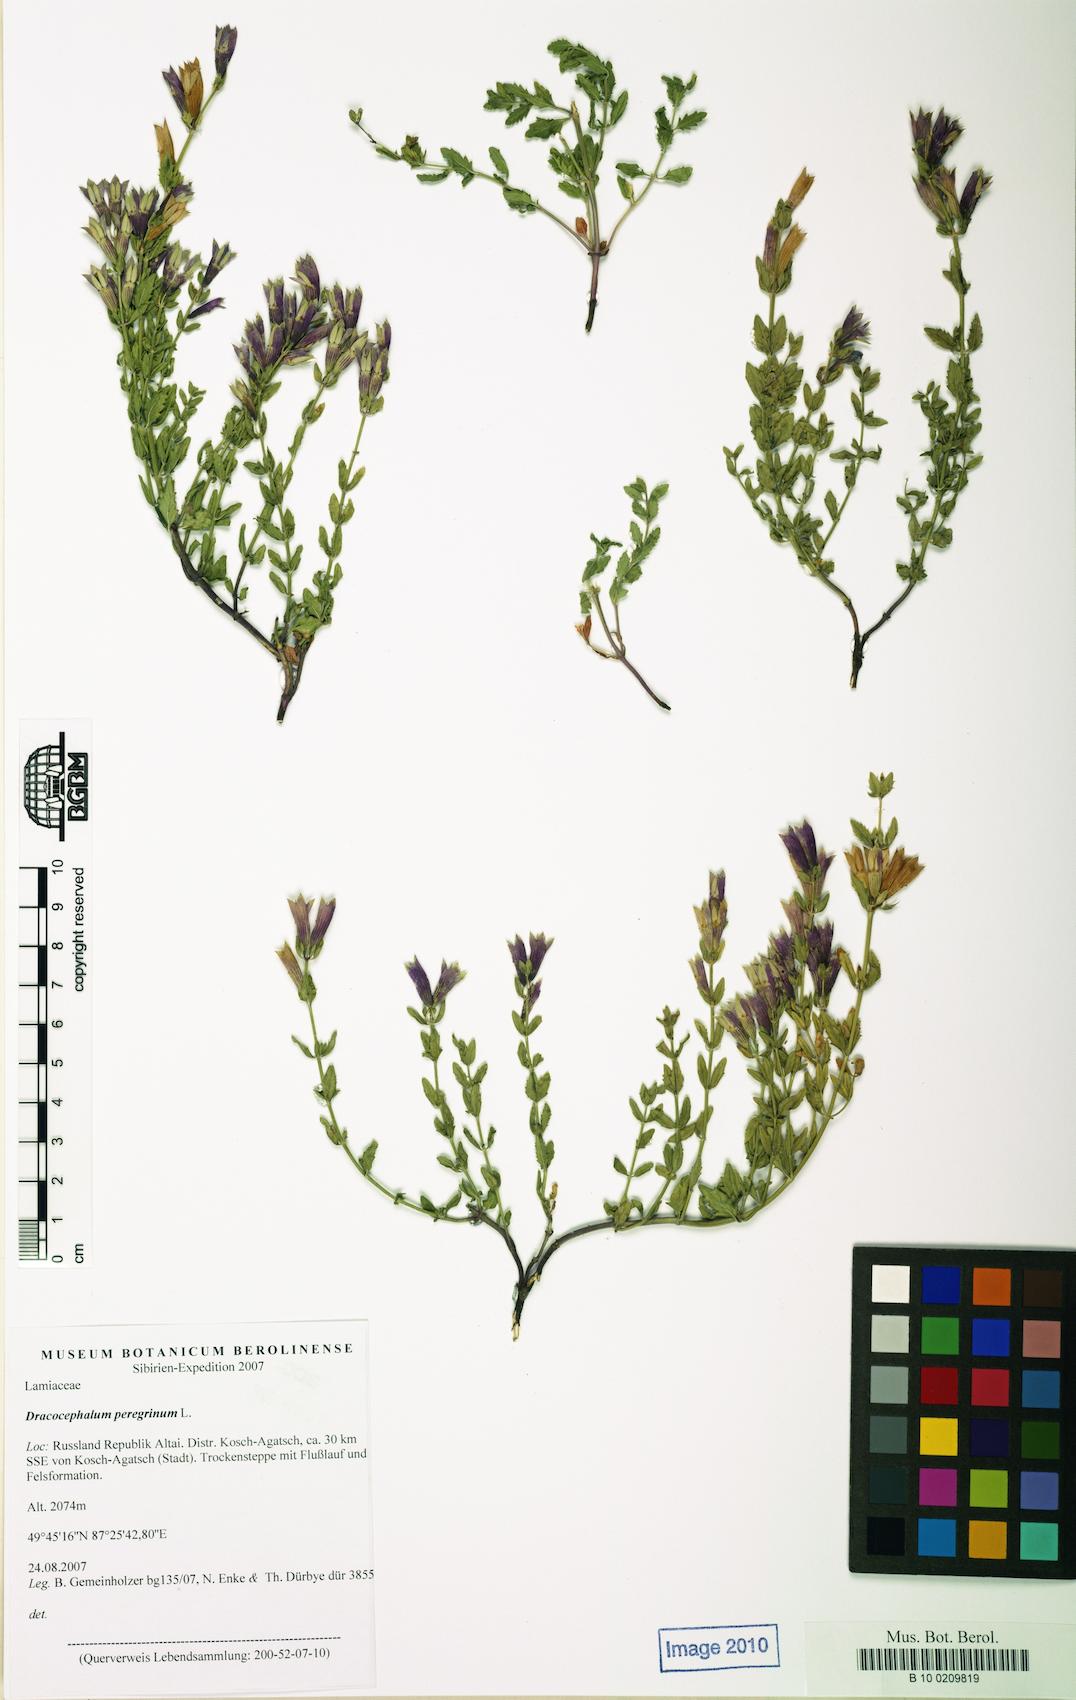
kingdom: Plantae
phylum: Tracheophyta
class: Magnoliopsida
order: Lamiales
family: Lamiaceae
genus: Dracocephalum
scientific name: Dracocephalum peregrinum
